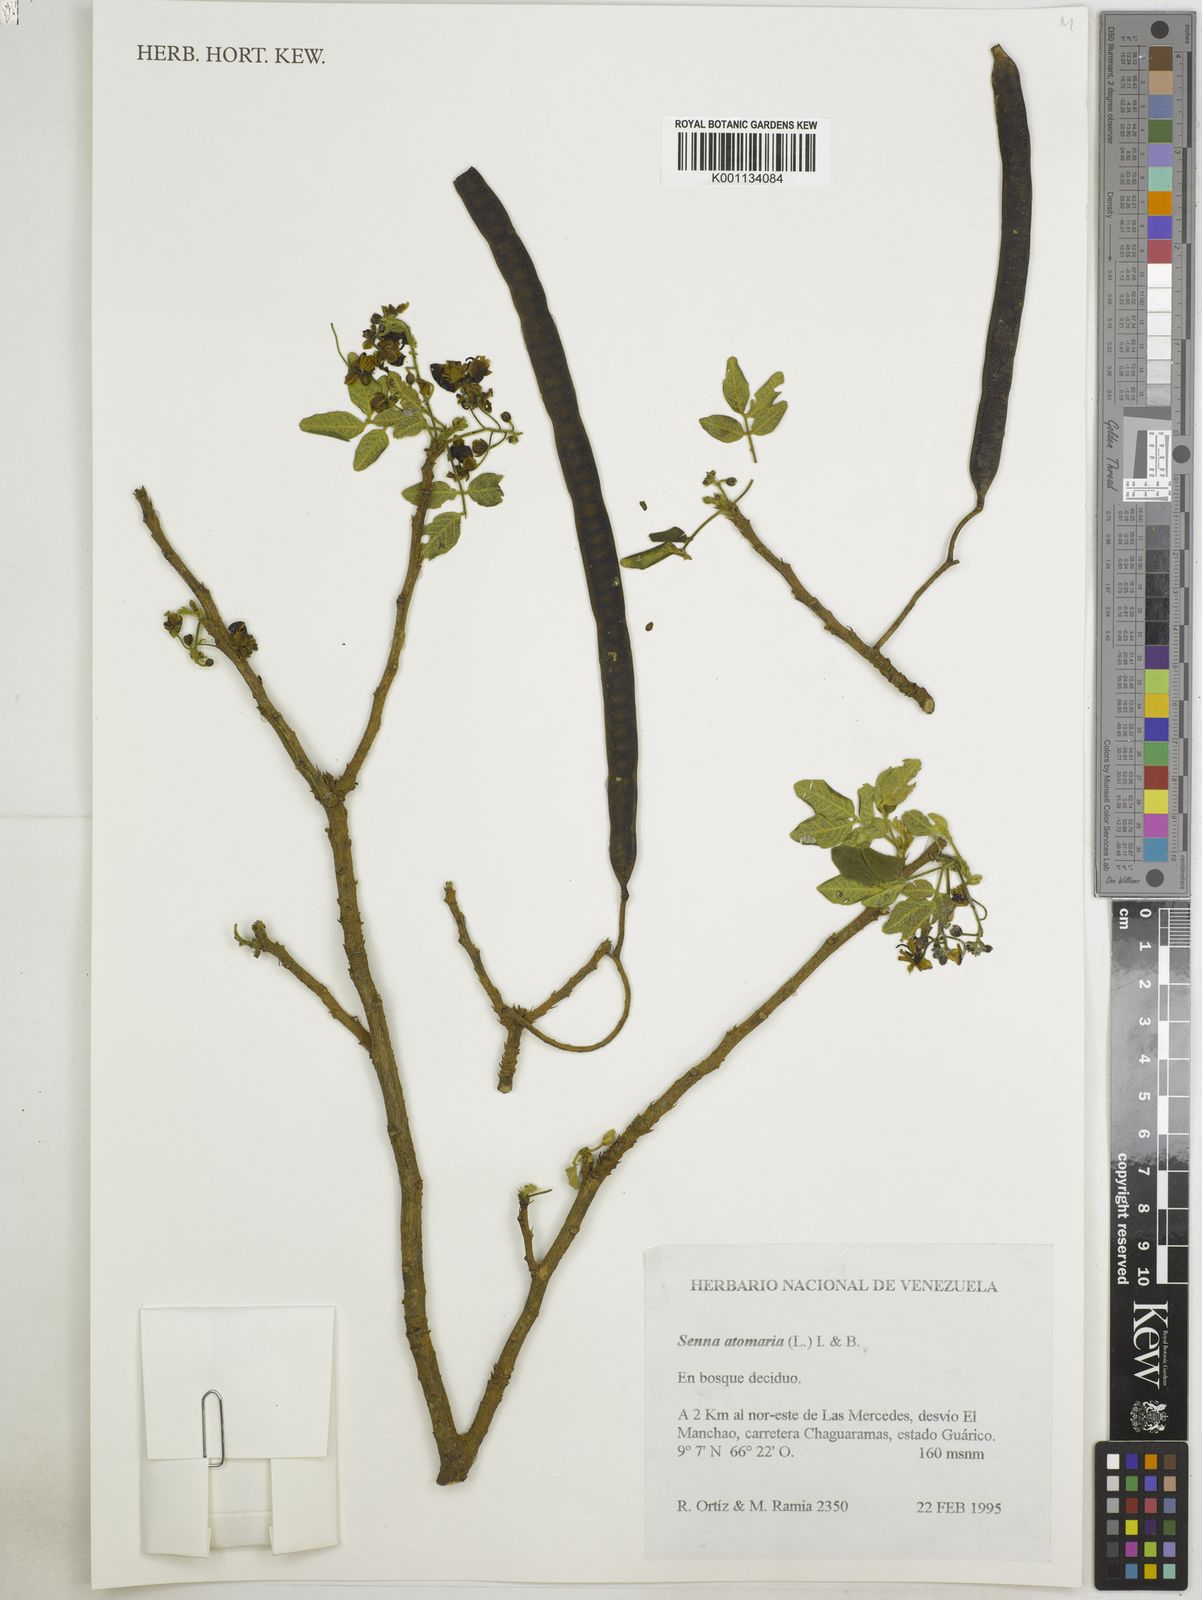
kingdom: Plantae
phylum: Tracheophyta
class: Magnoliopsida
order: Fabales
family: Fabaceae
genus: Senna
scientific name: Senna atomaria
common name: Flor de san jose
